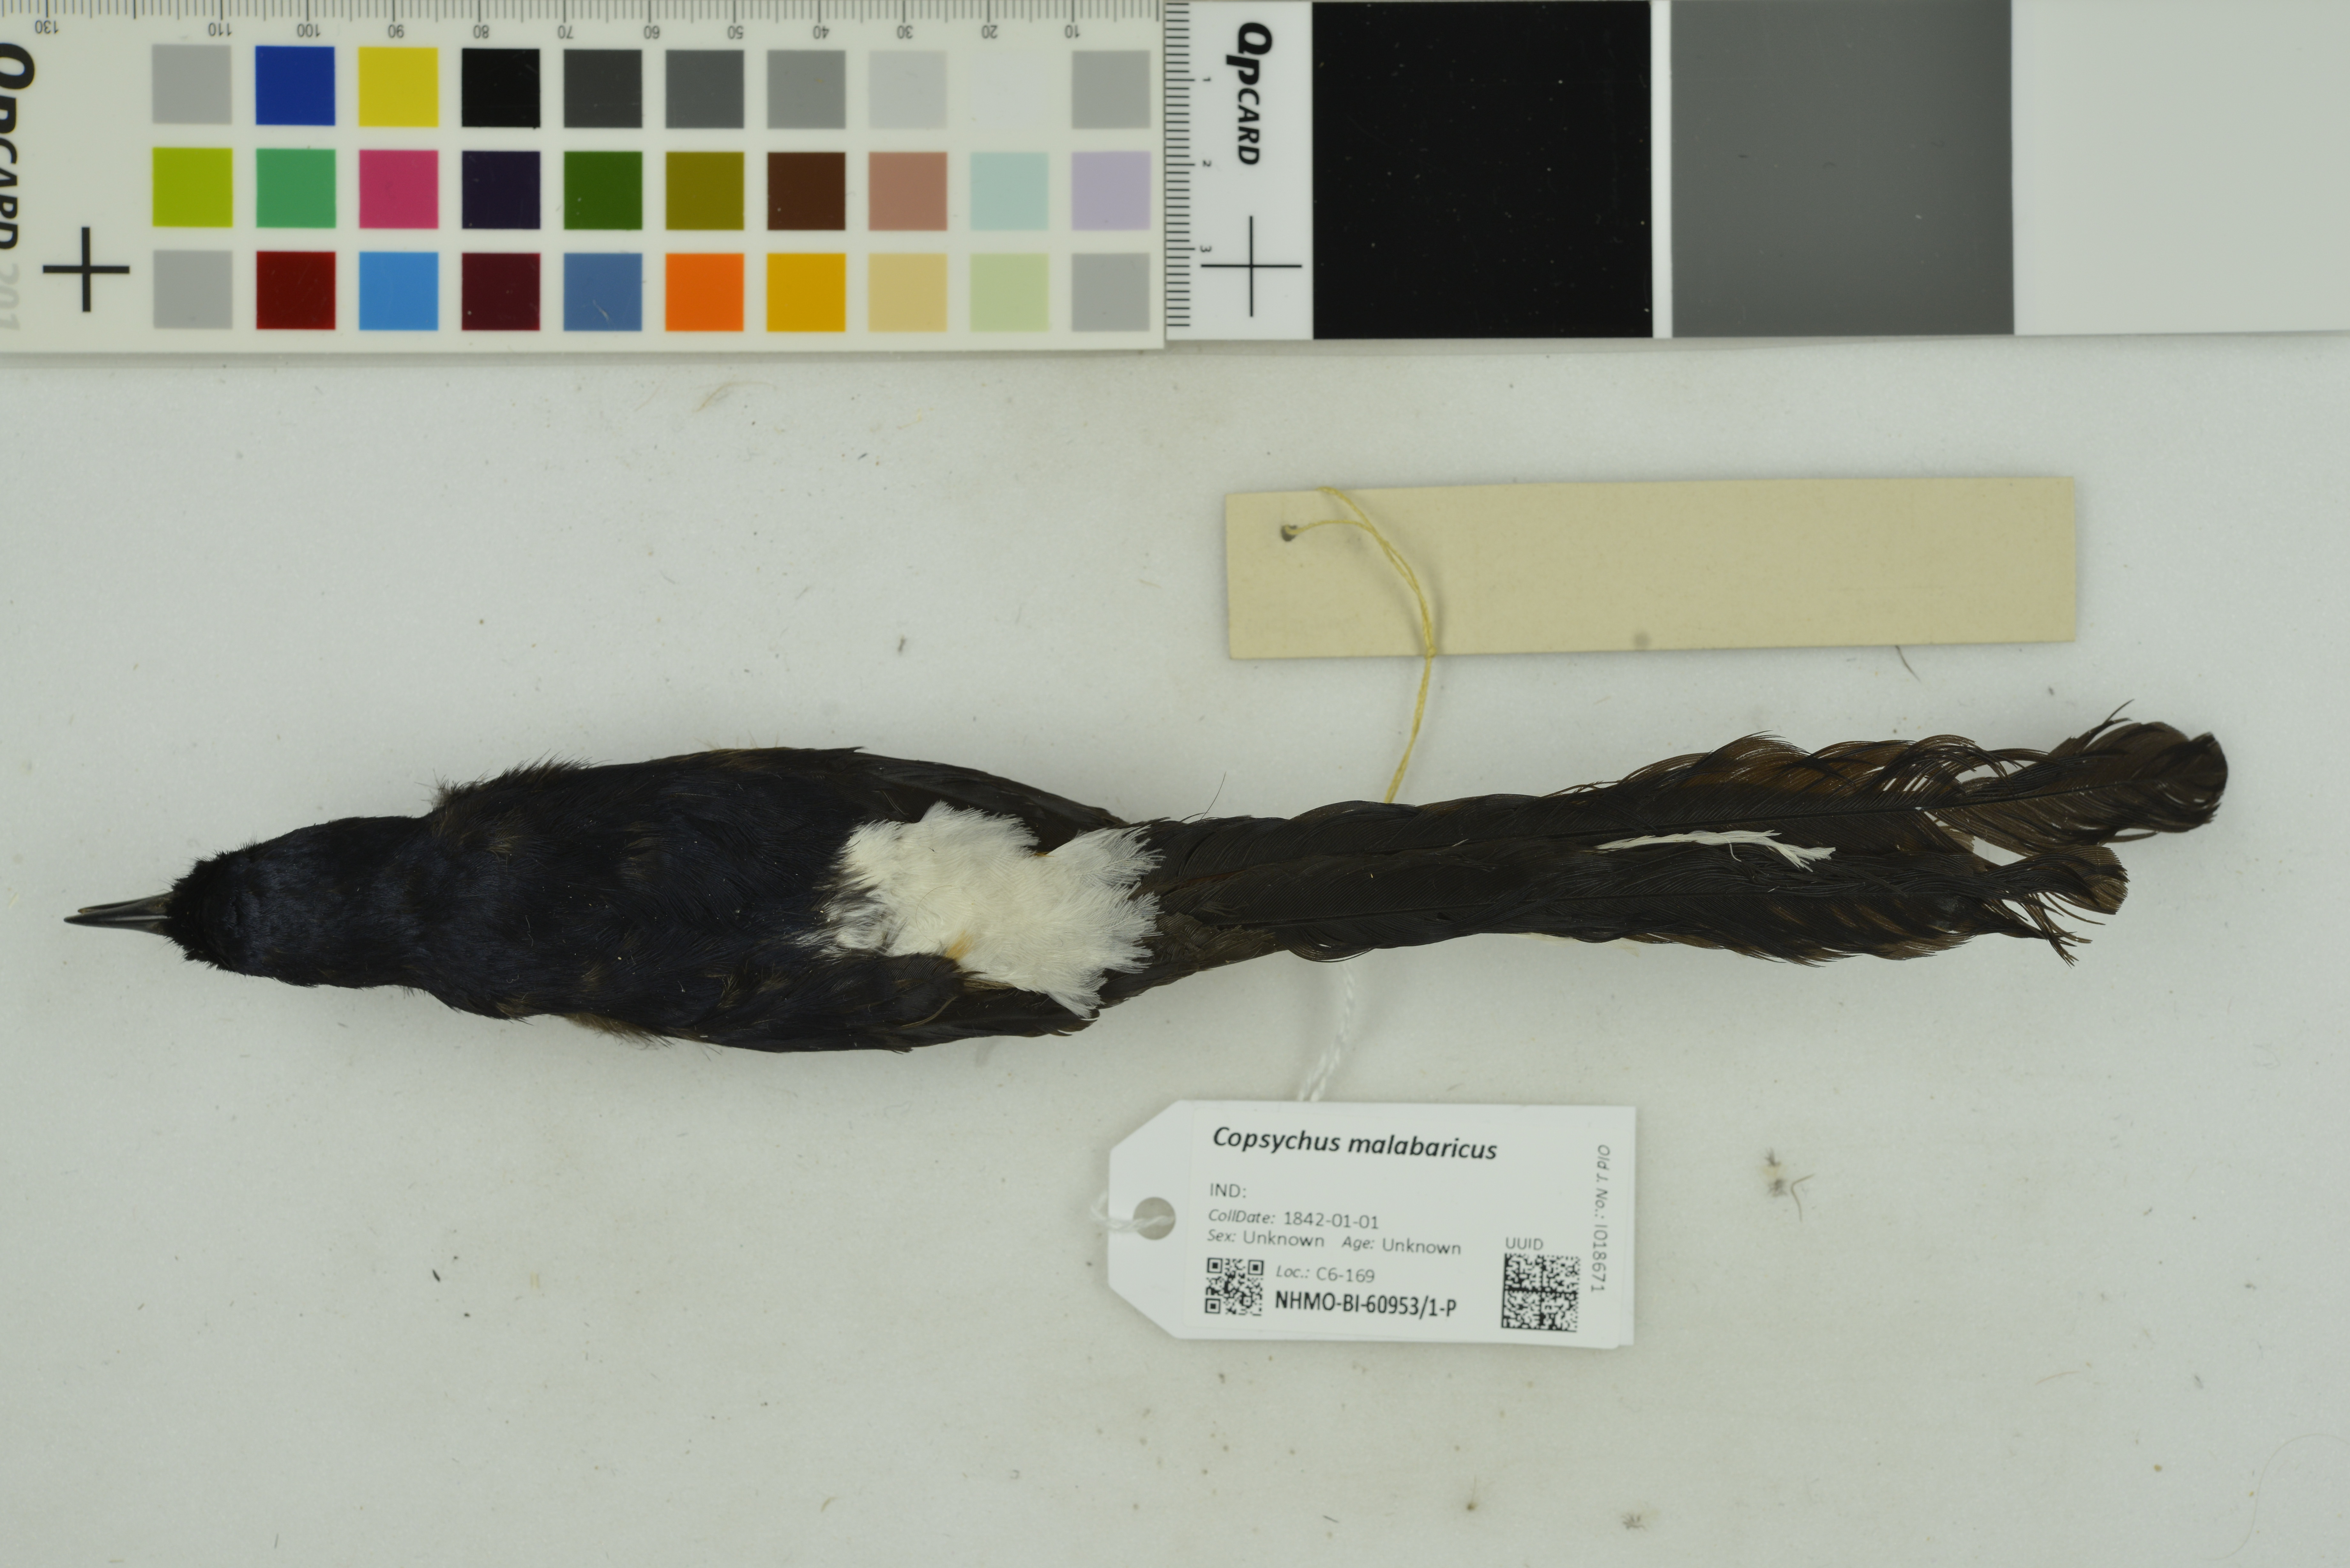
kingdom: Animalia
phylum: Chordata
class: Aves
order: Passeriformes
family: Muscicapidae
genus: Copsychus
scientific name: Copsychus malabaricus
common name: White-rumped shama
